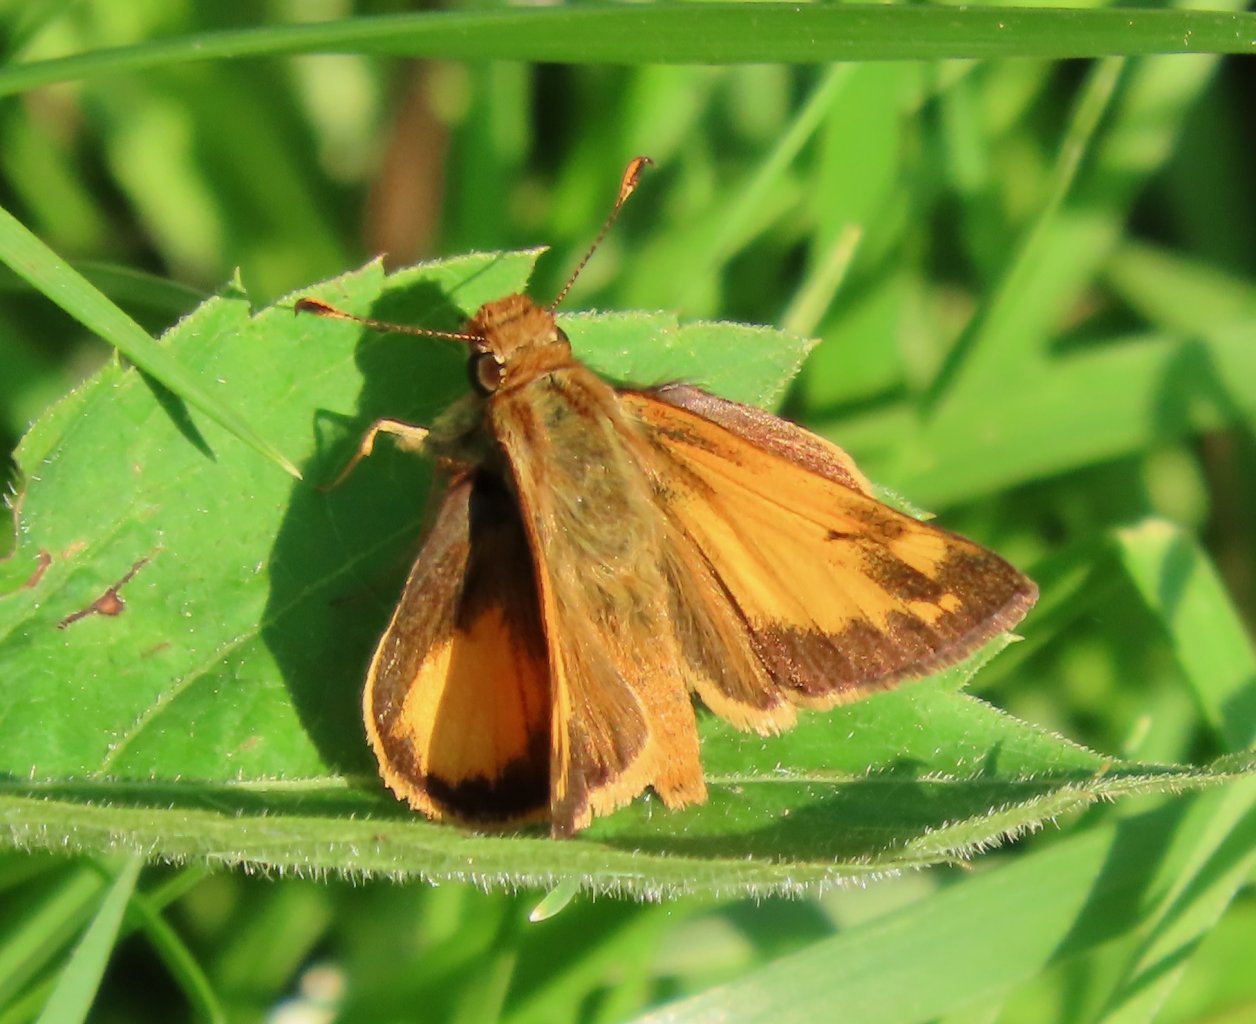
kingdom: Animalia
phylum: Arthropoda
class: Insecta
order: Lepidoptera
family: Hesperiidae
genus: Lon
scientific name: Lon zabulon
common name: Zabulon Skipper
